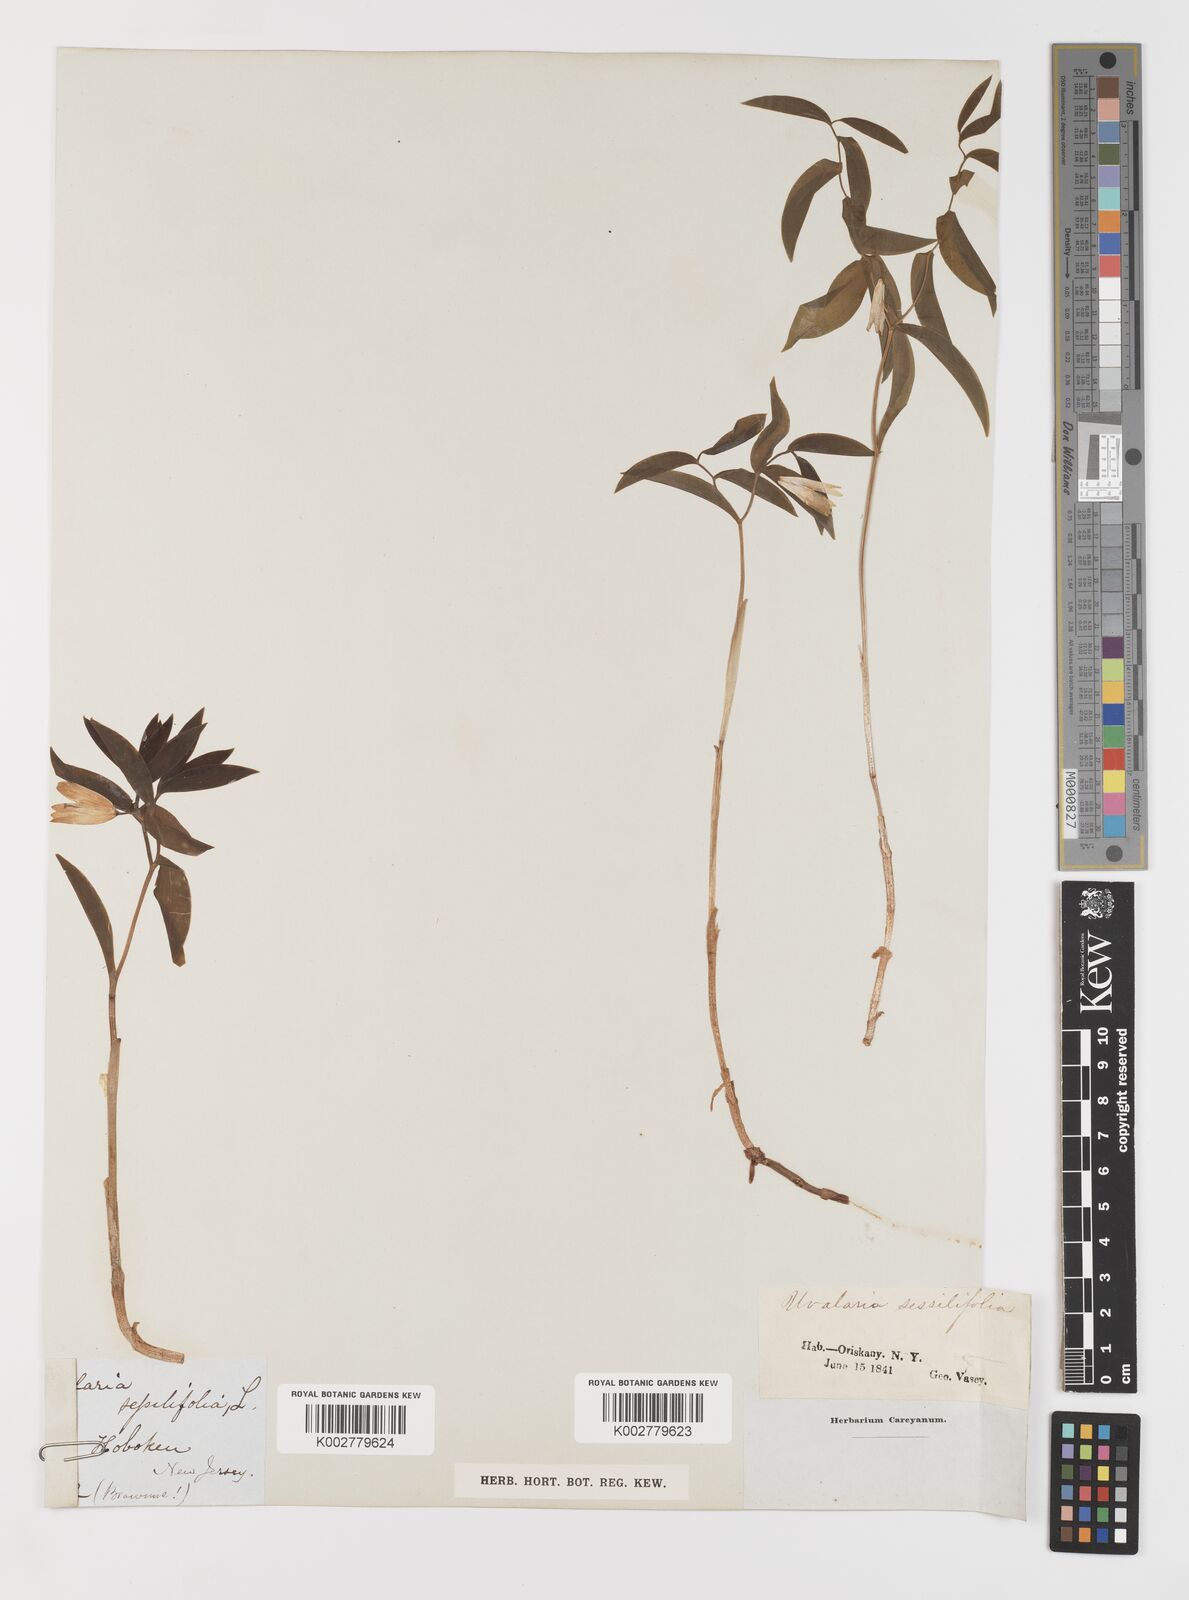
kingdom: Plantae
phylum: Tracheophyta
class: Liliopsida
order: Liliales
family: Colchicaceae
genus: Uvularia
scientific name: Uvularia sessilifolia
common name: Straw-lily
